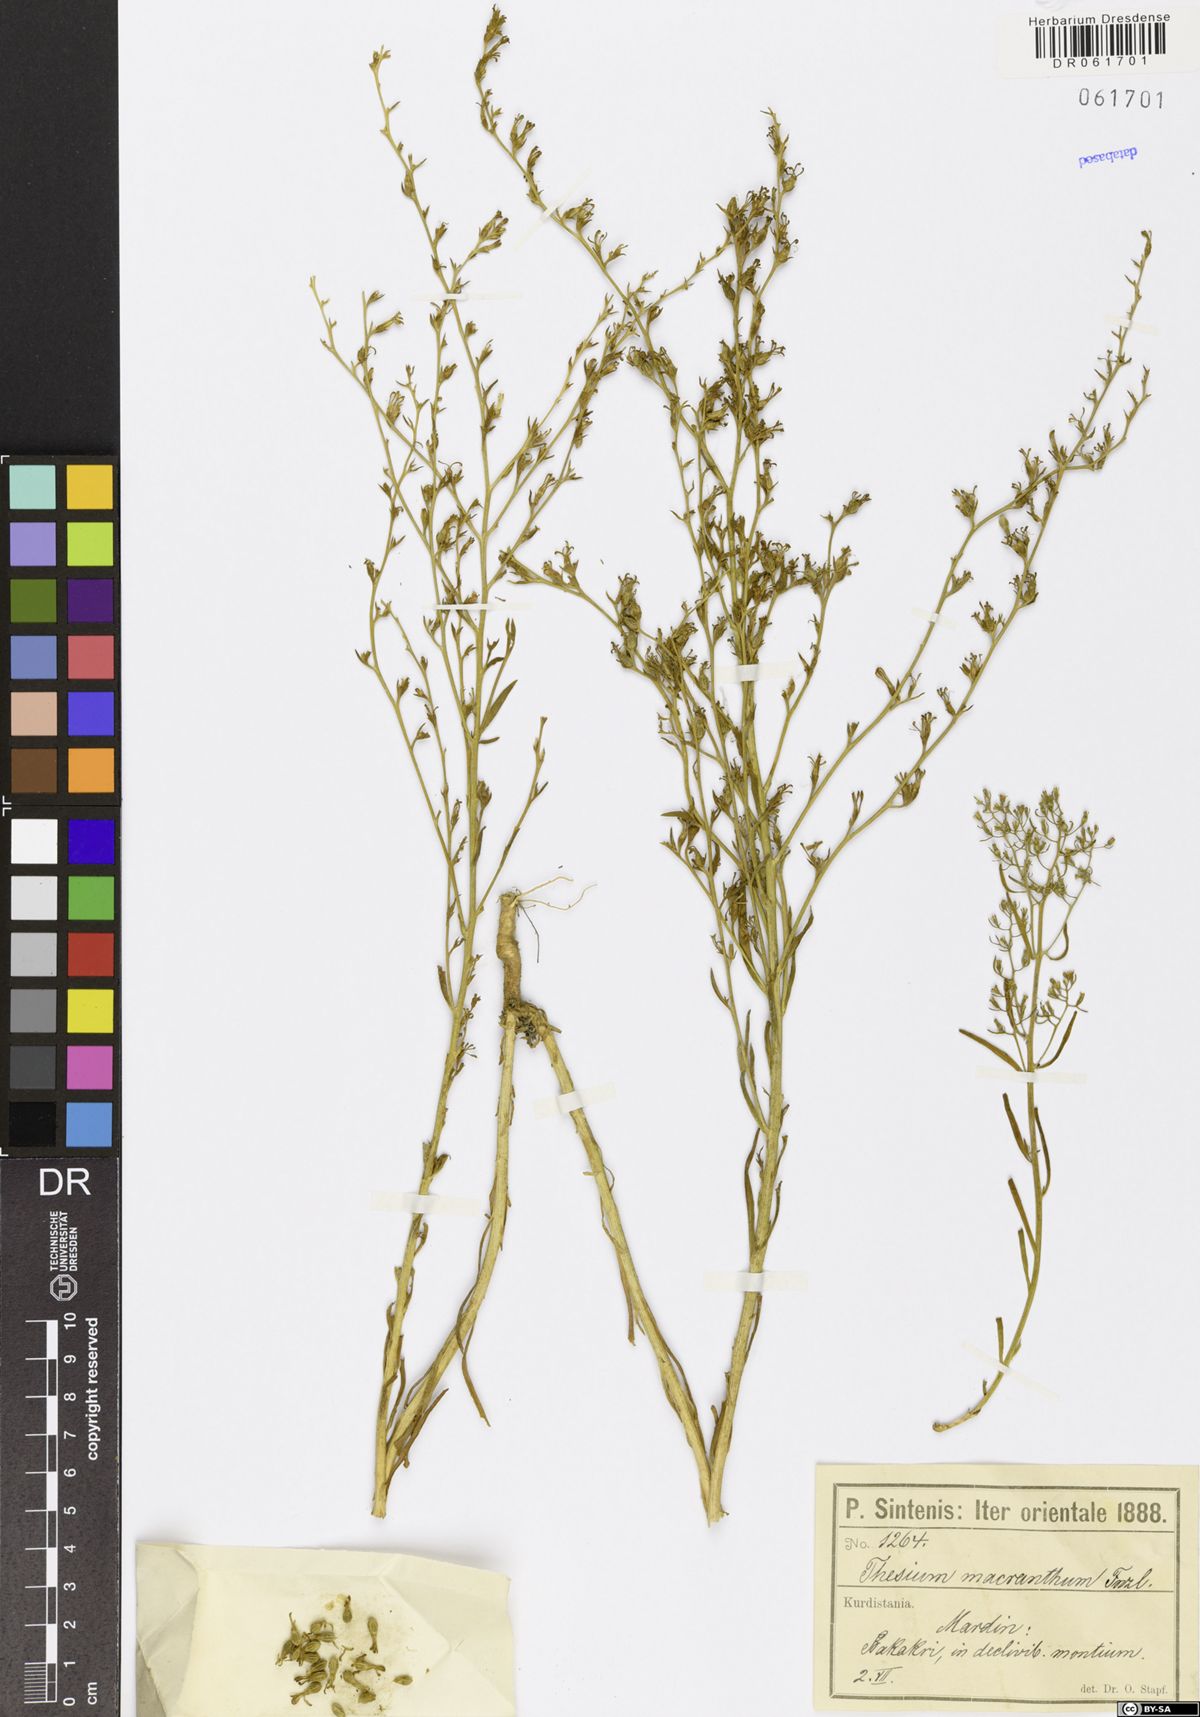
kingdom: Plantae
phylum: Tracheophyta
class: Magnoliopsida
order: Santalales
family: Thesiaceae
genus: Thesium
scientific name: Thesium macranthum
